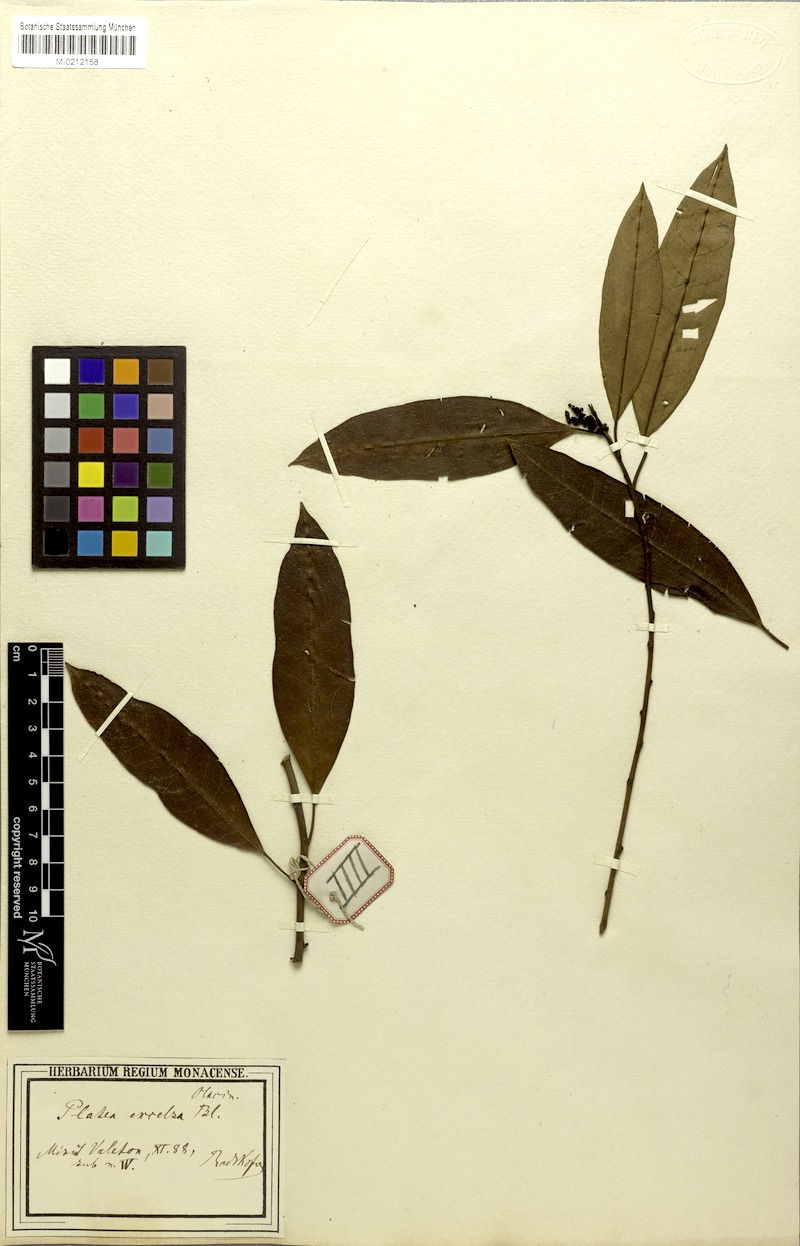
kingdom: Plantae
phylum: Tracheophyta
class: Magnoliopsida
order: Metteniusales
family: Metteniusaceae
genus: Platea
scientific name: Platea excelsa
